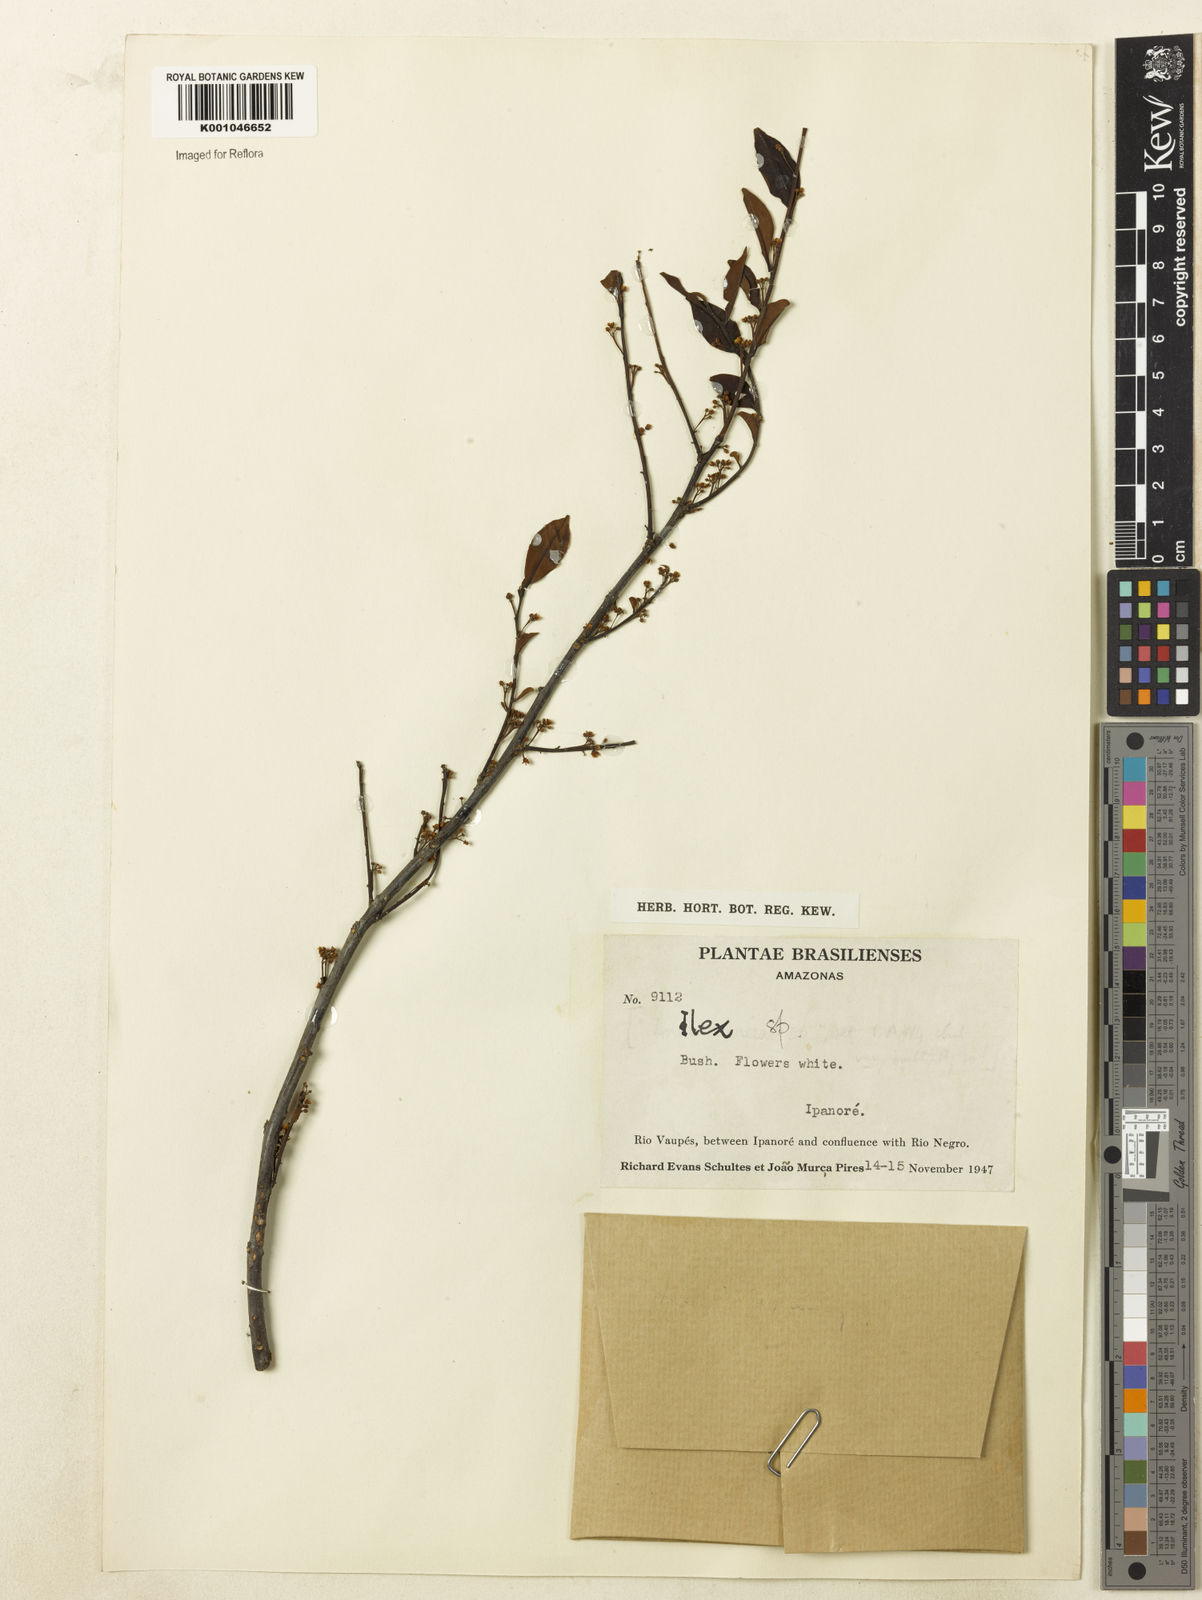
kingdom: Plantae
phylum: Tracheophyta
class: Magnoliopsida
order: Aquifoliales
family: Aquifoliaceae
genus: Ilex
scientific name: Ilex vismiifolia
